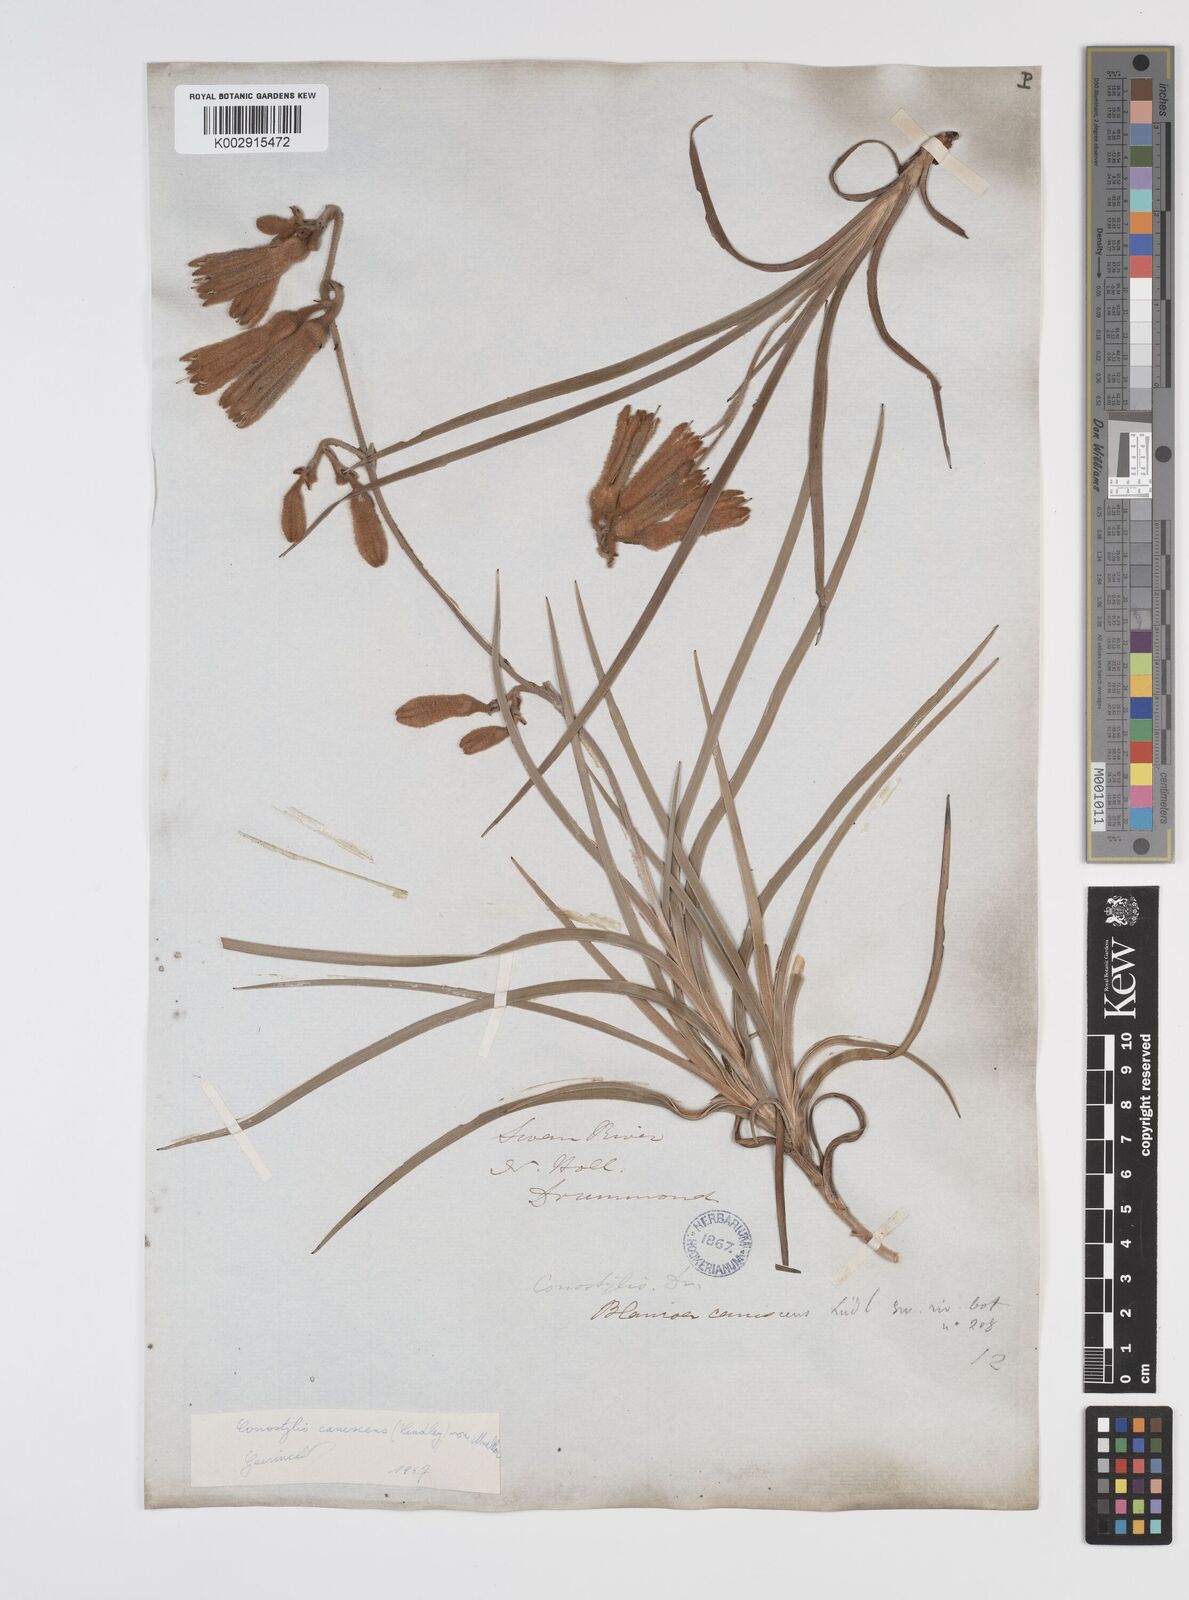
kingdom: Plantae
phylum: Tracheophyta
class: Liliopsida
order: Commelinales
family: Haemodoraceae
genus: Blancoa
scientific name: Blancoa canescens
